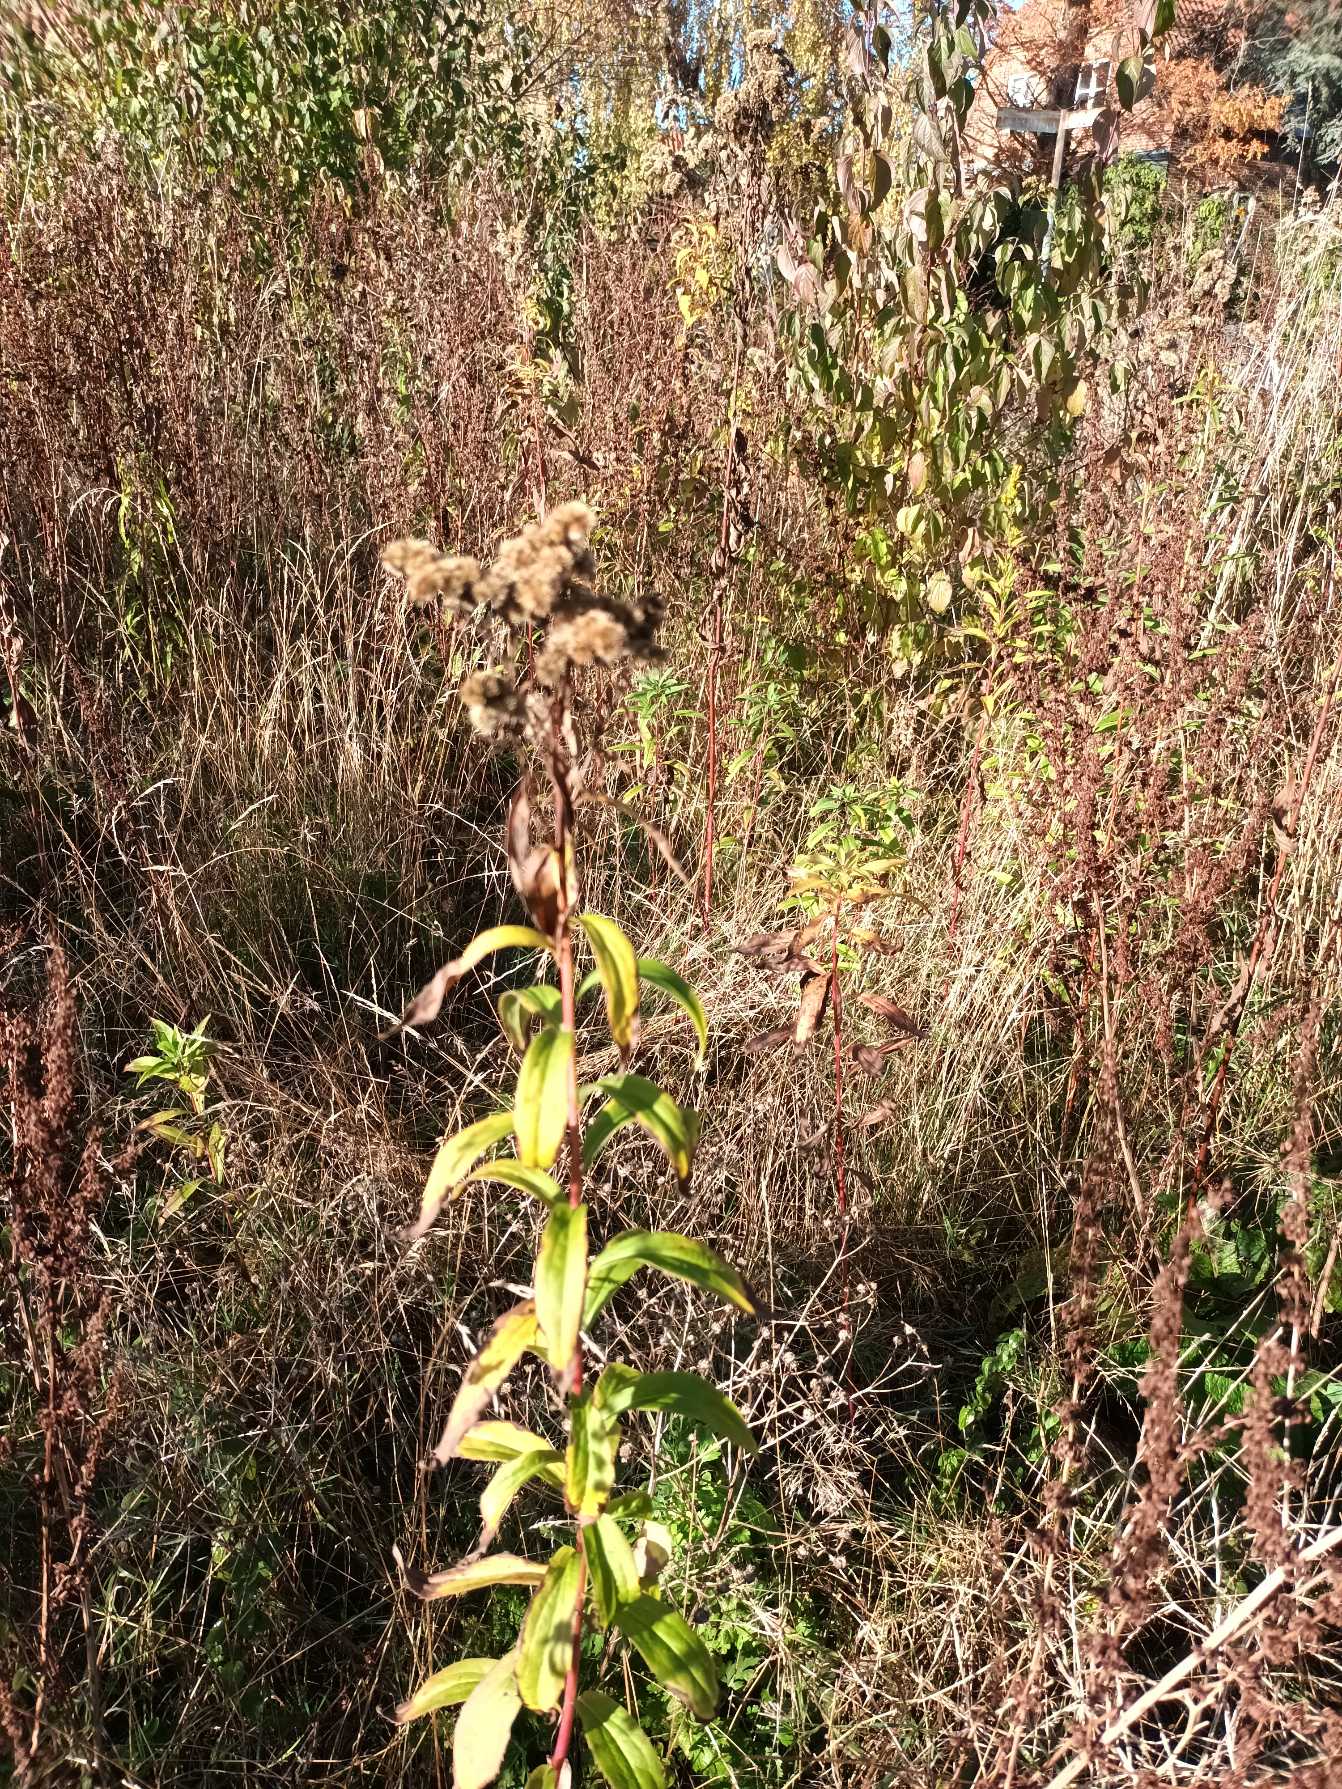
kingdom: Plantae
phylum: Tracheophyta
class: Magnoliopsida
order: Asterales
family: Asteraceae
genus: Solidago
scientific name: Solidago gigantea
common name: Sildig gyldenris
